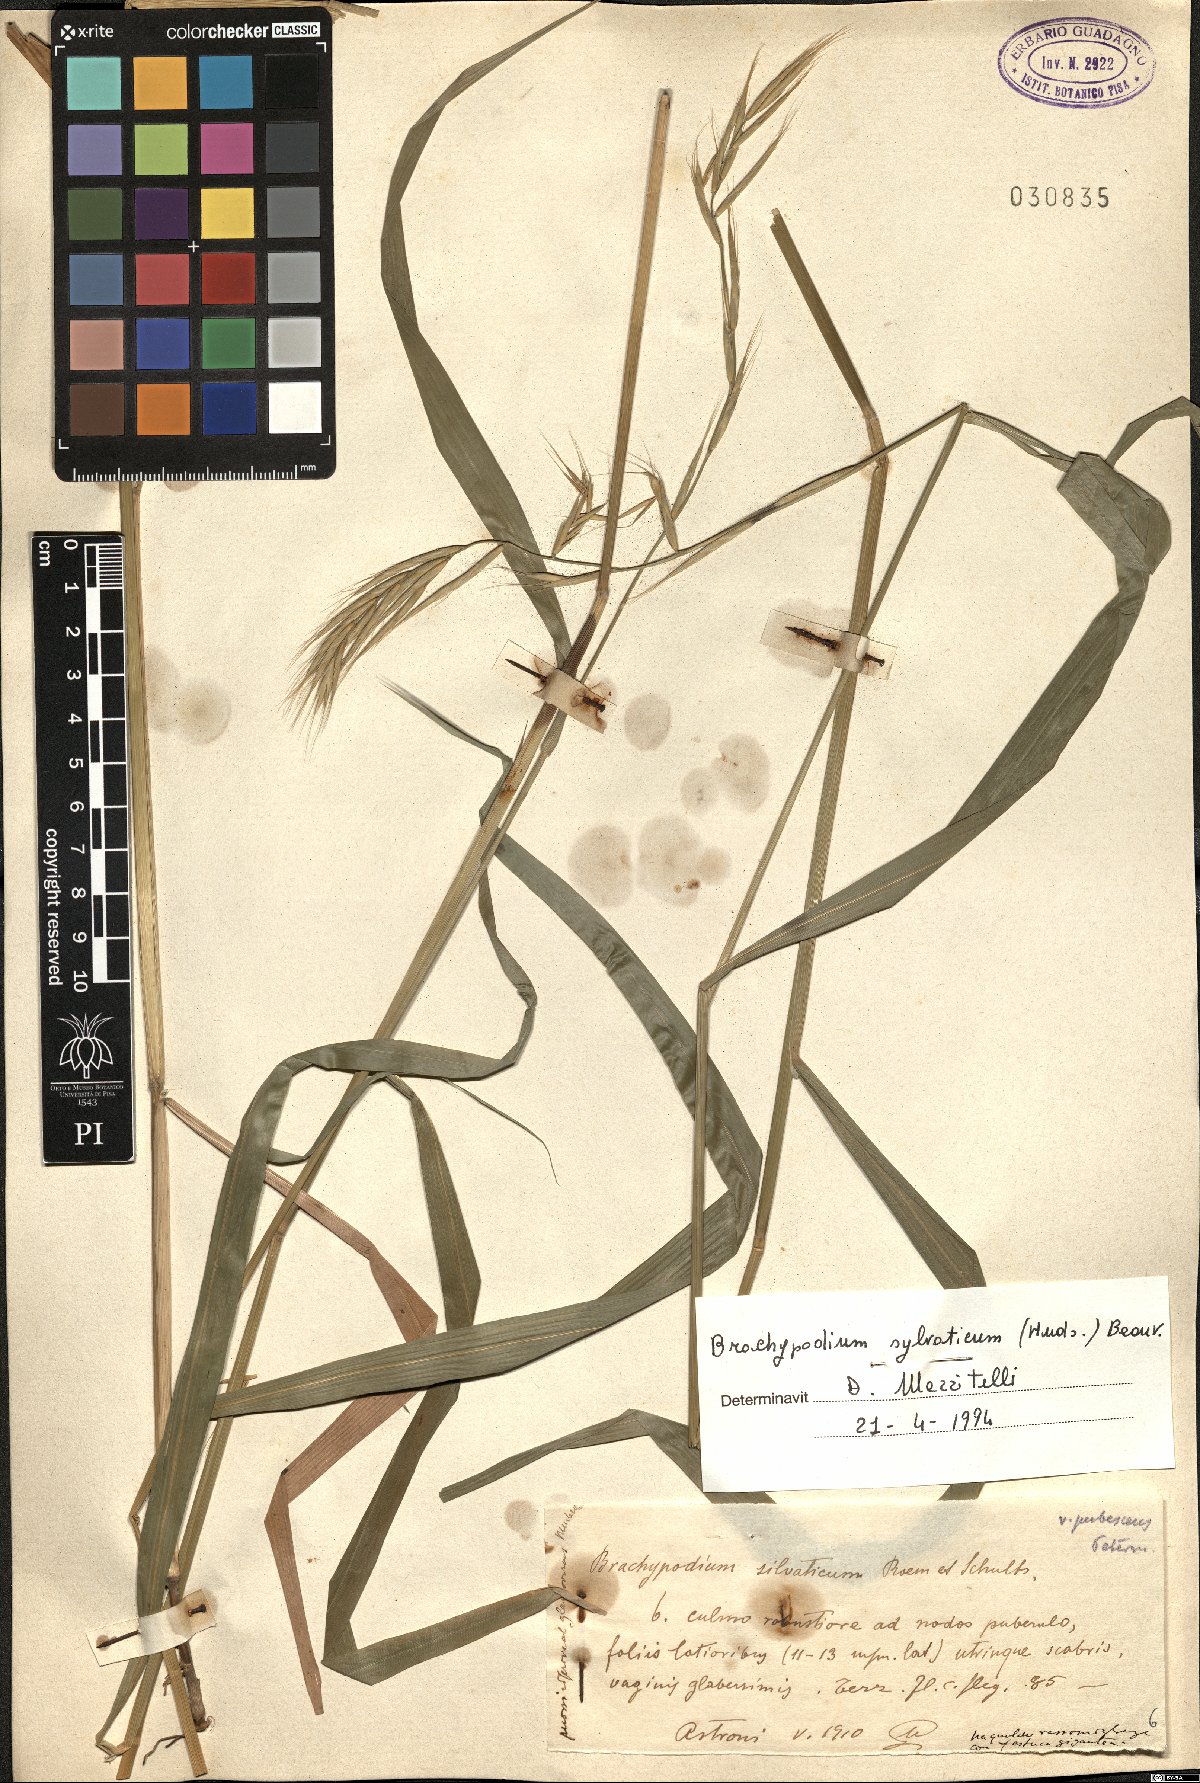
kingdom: Plantae
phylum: Tracheophyta
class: Liliopsida
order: Poales
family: Poaceae
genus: Brachypodium
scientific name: Brachypodium sylvaticum
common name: False-brome
